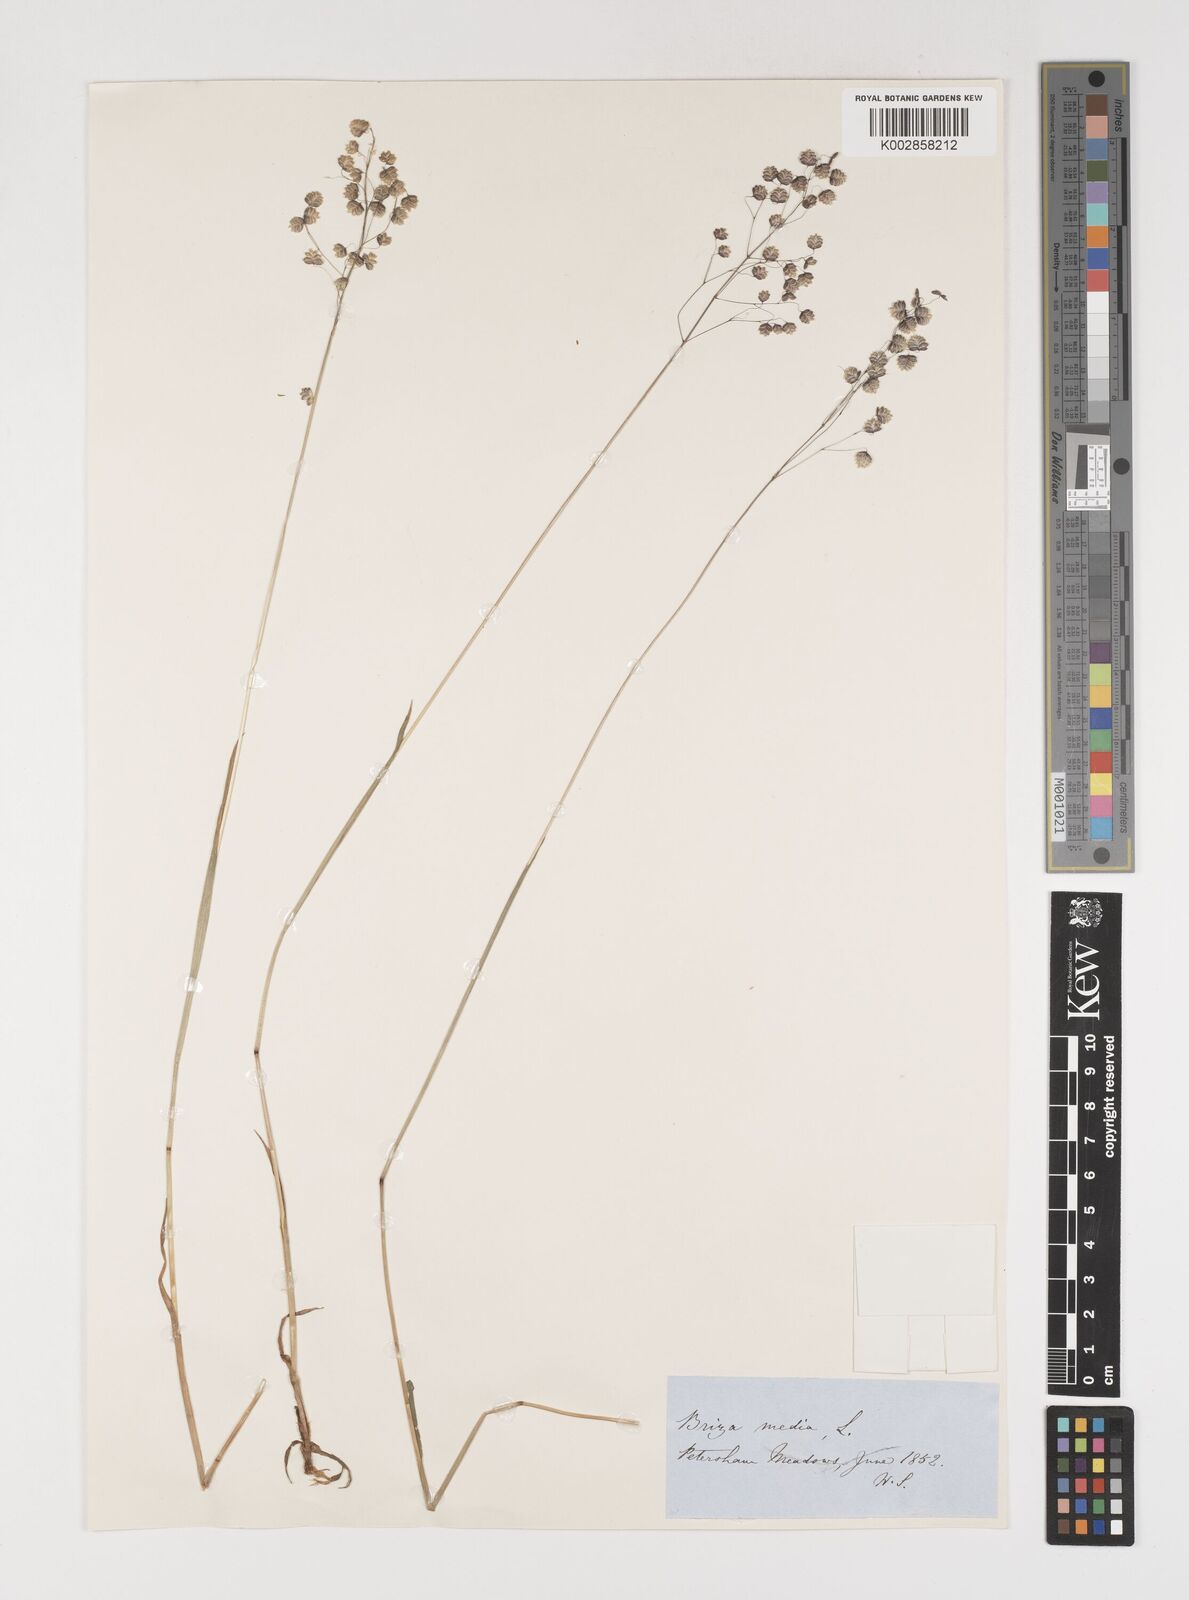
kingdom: Plantae
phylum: Tracheophyta
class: Liliopsida
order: Poales
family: Poaceae
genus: Briza
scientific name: Briza media
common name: Quaking grass
